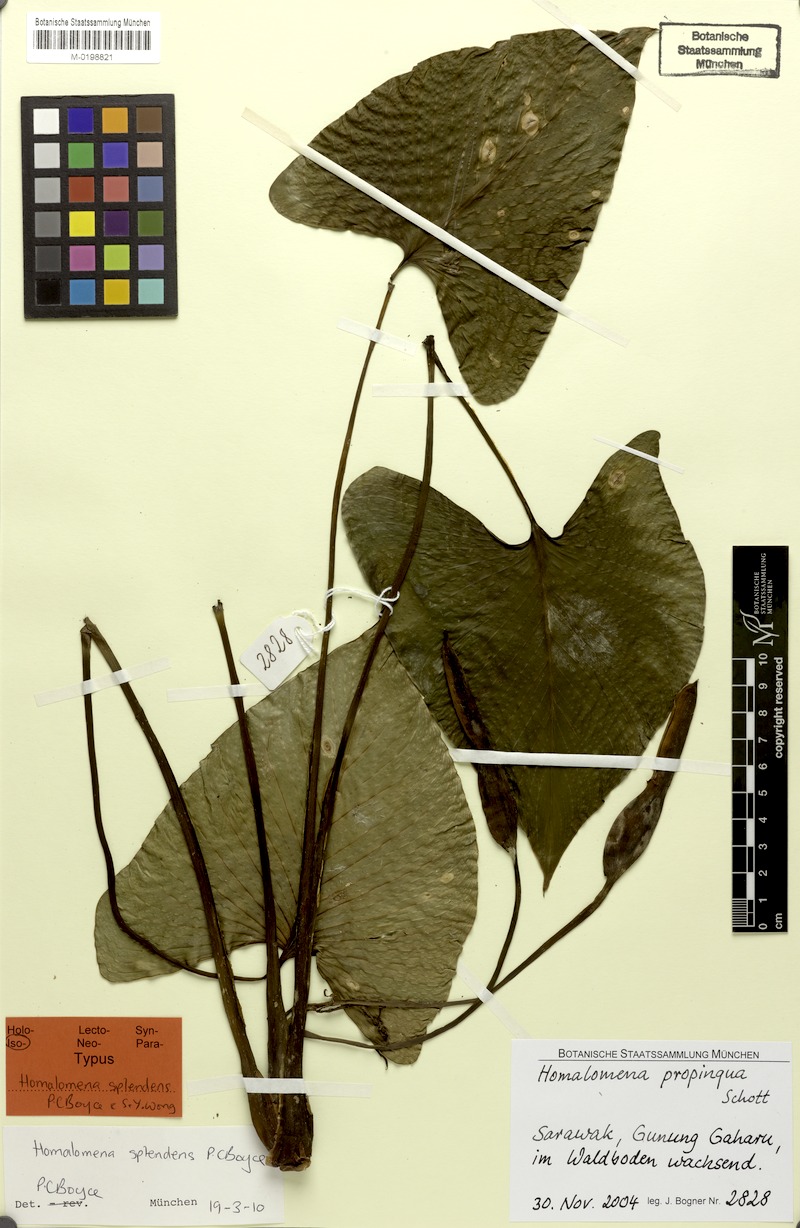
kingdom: Plantae
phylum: Tracheophyta
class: Liliopsida
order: Alismatales
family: Araceae
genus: Homalomena
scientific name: Homalomena
